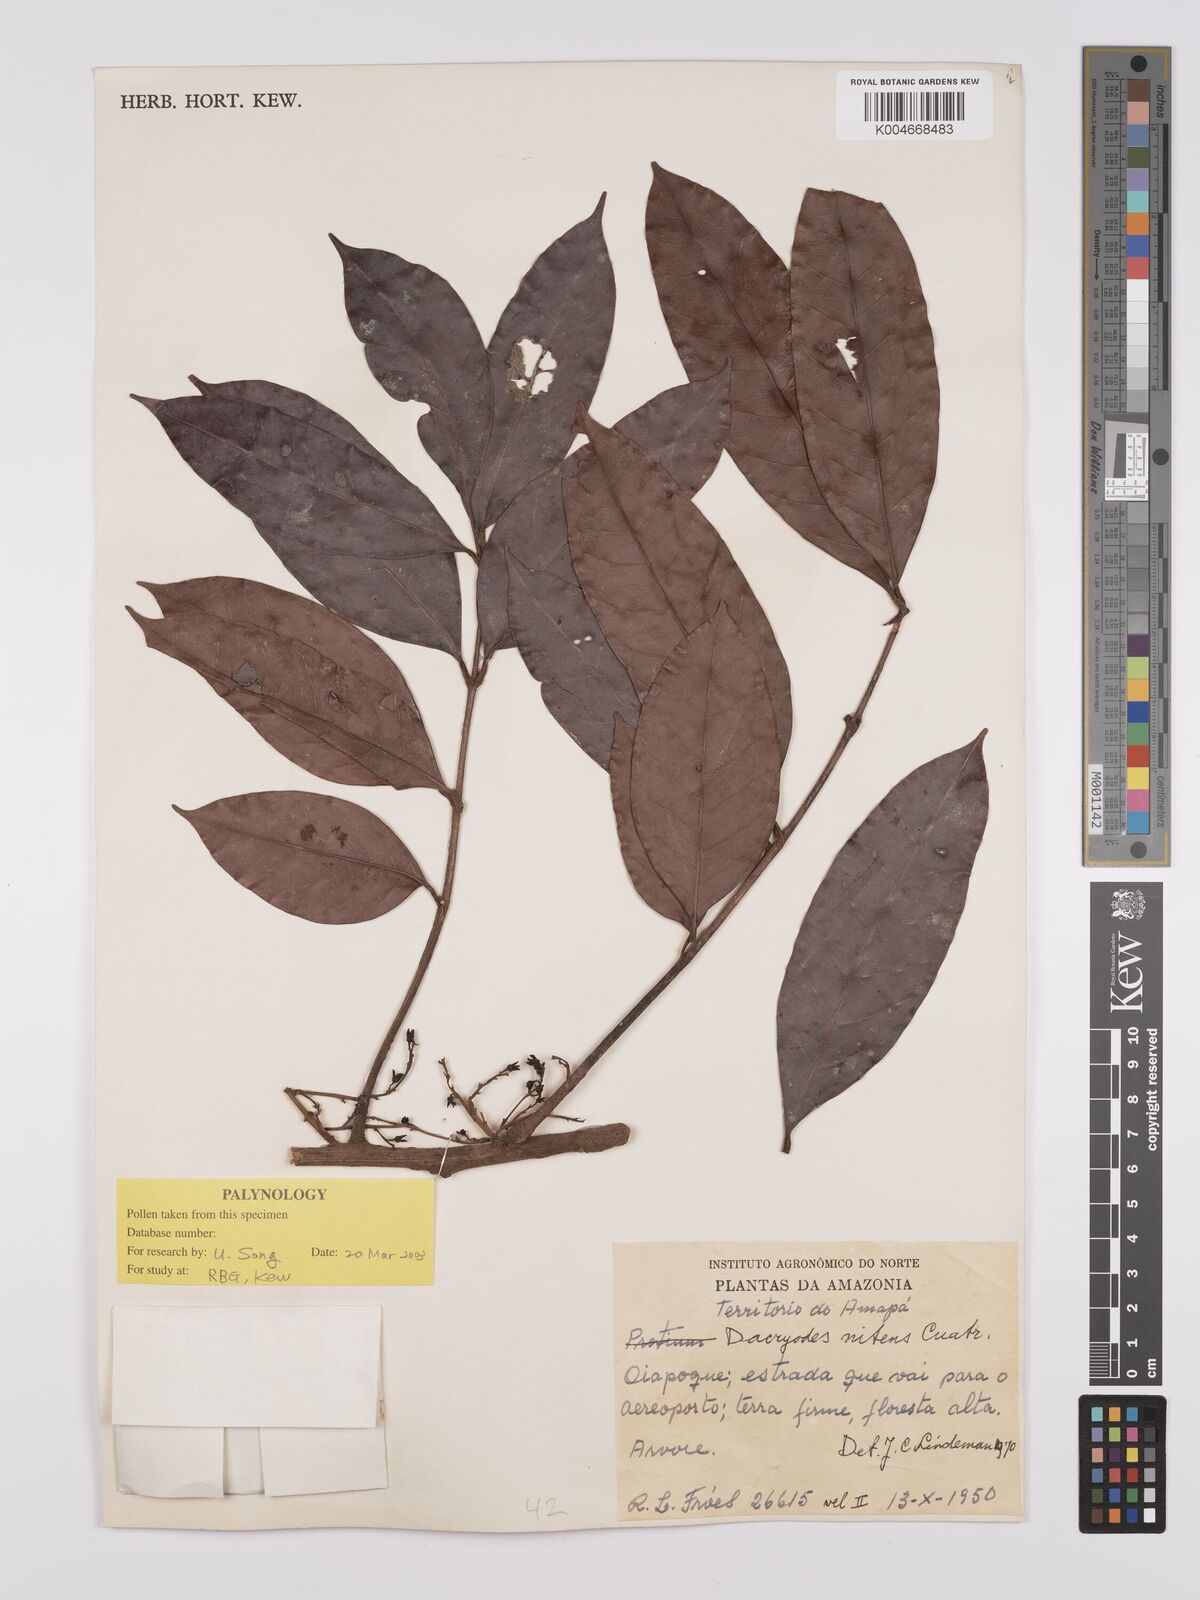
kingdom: Plantae
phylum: Tracheophyta
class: Magnoliopsida
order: Sapindales
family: Burseraceae
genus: Dacryodes
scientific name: Dacryodes nitens
